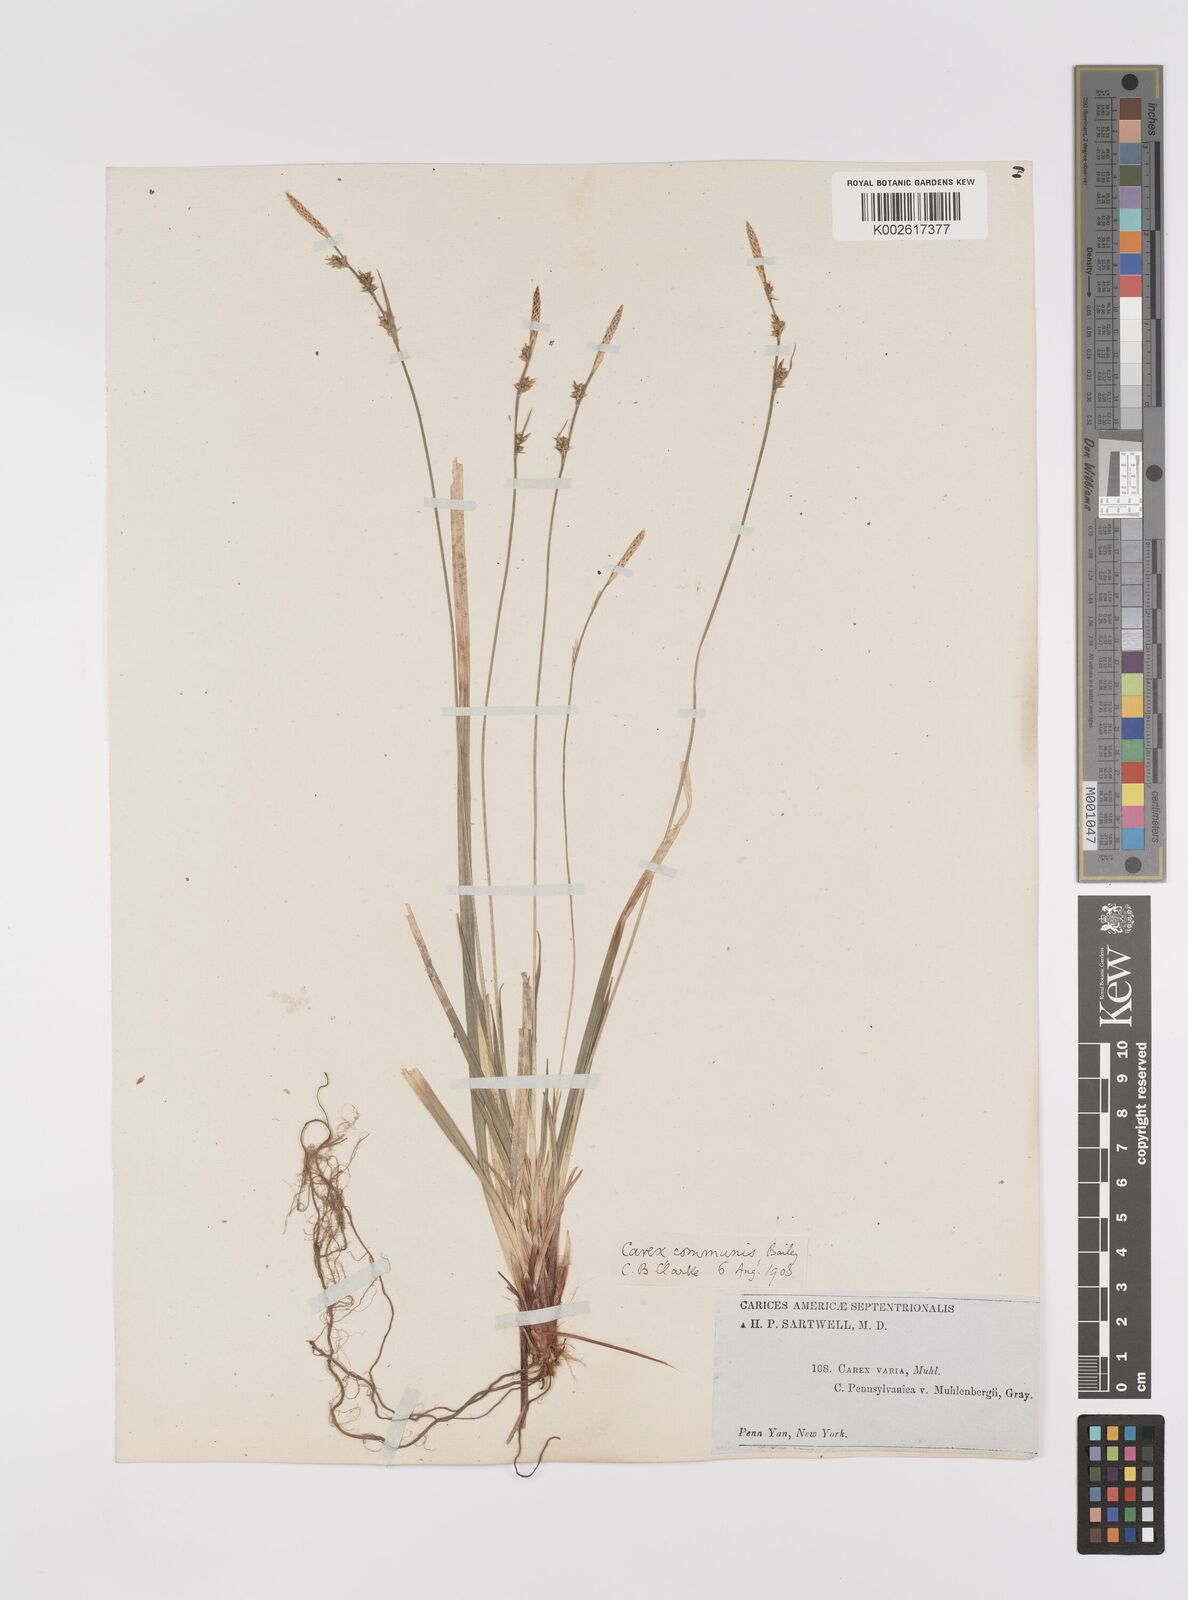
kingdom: Plantae
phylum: Tracheophyta
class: Liliopsida
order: Poales
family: Cyperaceae
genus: Carex
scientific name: Carex communis
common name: Colonial oak sedge
